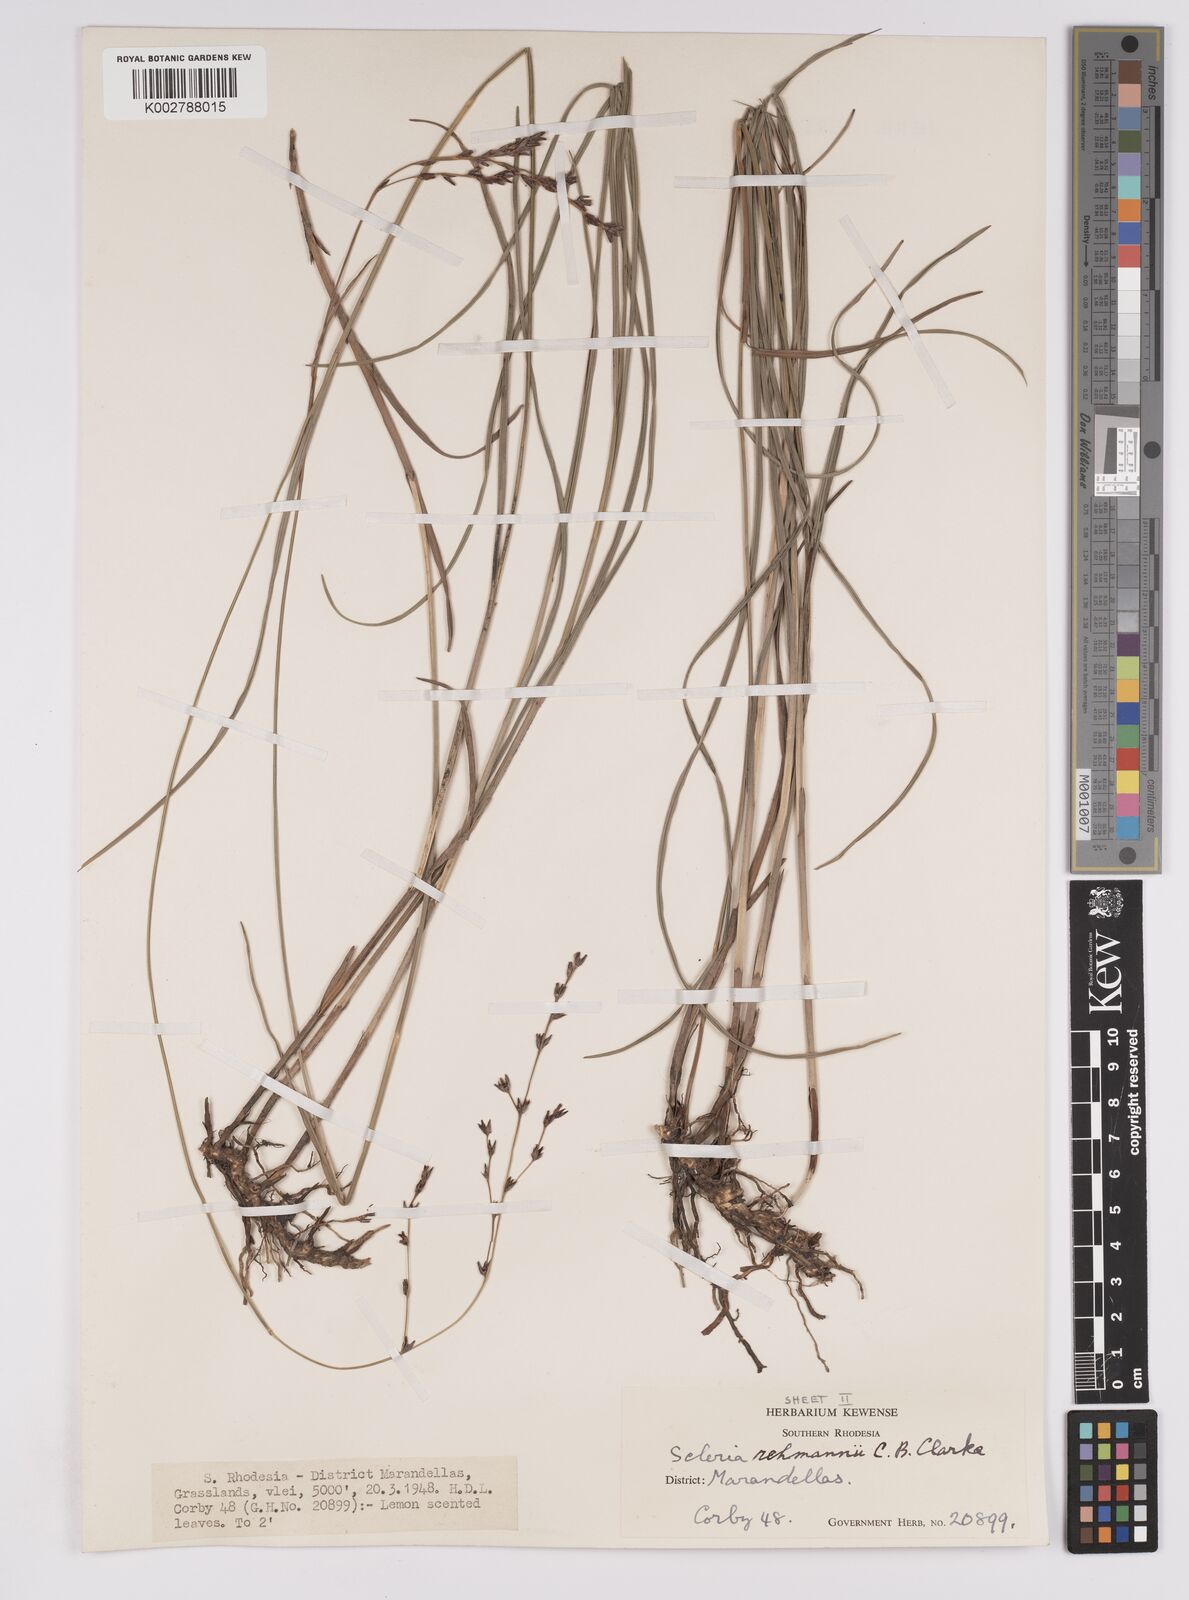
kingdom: Plantae
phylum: Tracheophyta
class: Liliopsida
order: Poales
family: Cyperaceae
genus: Scleria
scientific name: Scleria rehmannii
